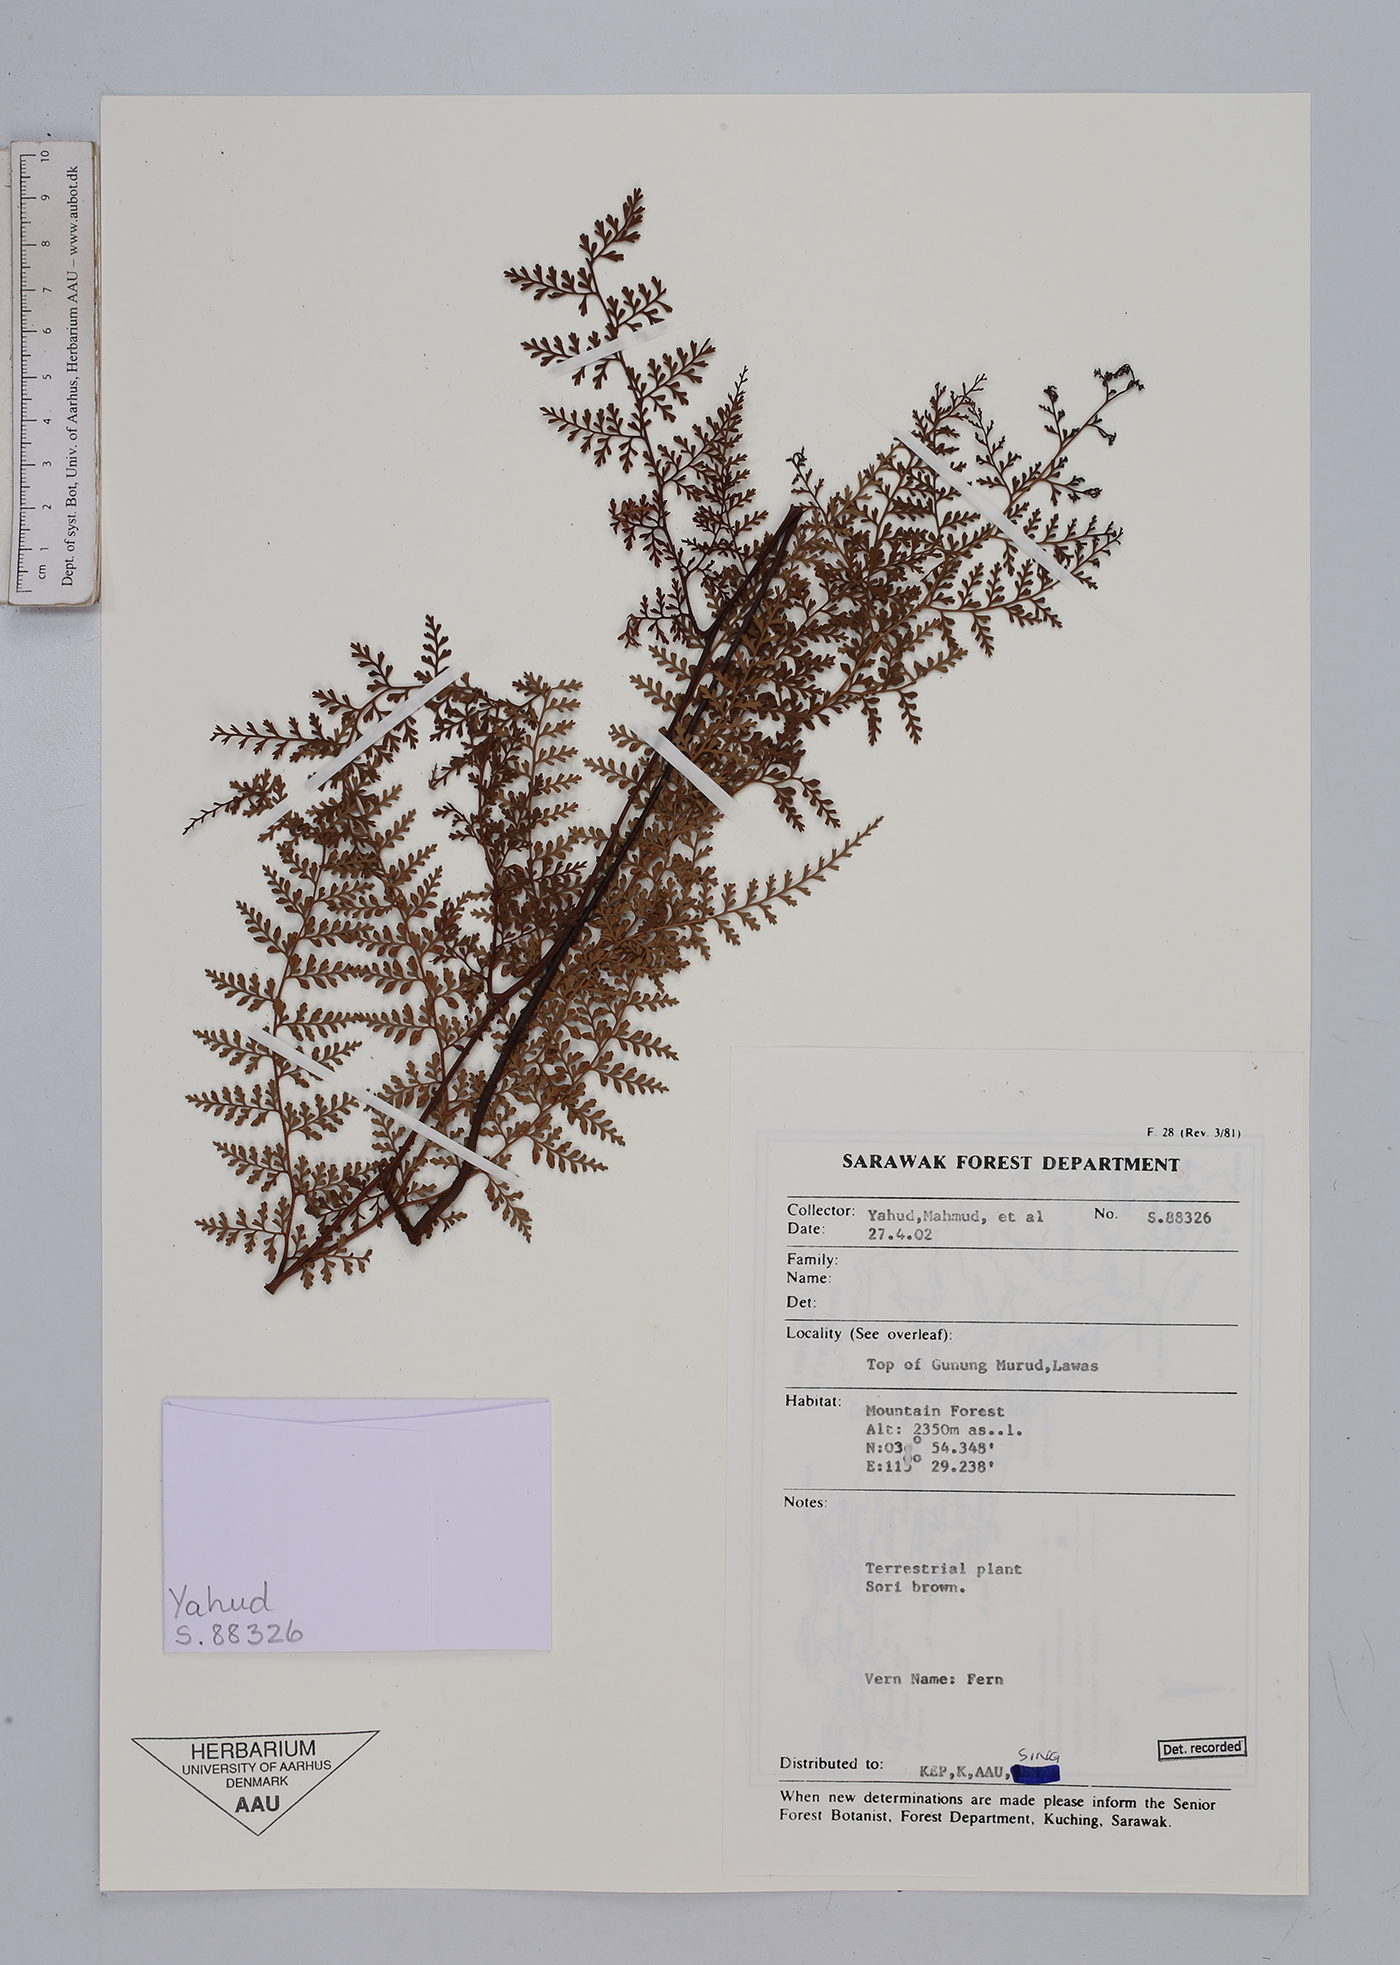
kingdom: Plantae
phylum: Tracheophyta
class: Polypodiopsida
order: Polypodiales
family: Aspleniaceae
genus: Asplenium
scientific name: Asplenium
